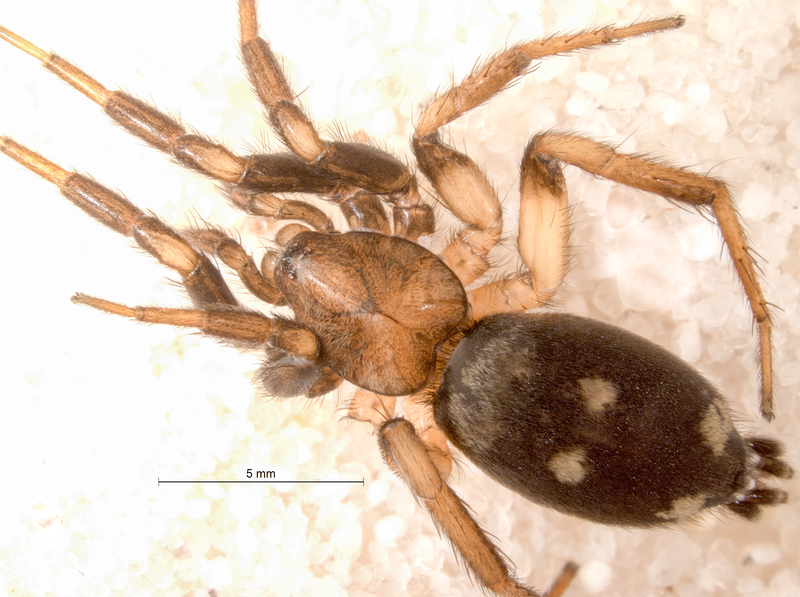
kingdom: Animalia
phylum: Arthropoda
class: Arachnida
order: Araneae
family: Gnaphosidae
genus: Callilepis
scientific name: Callilepis nocturna
